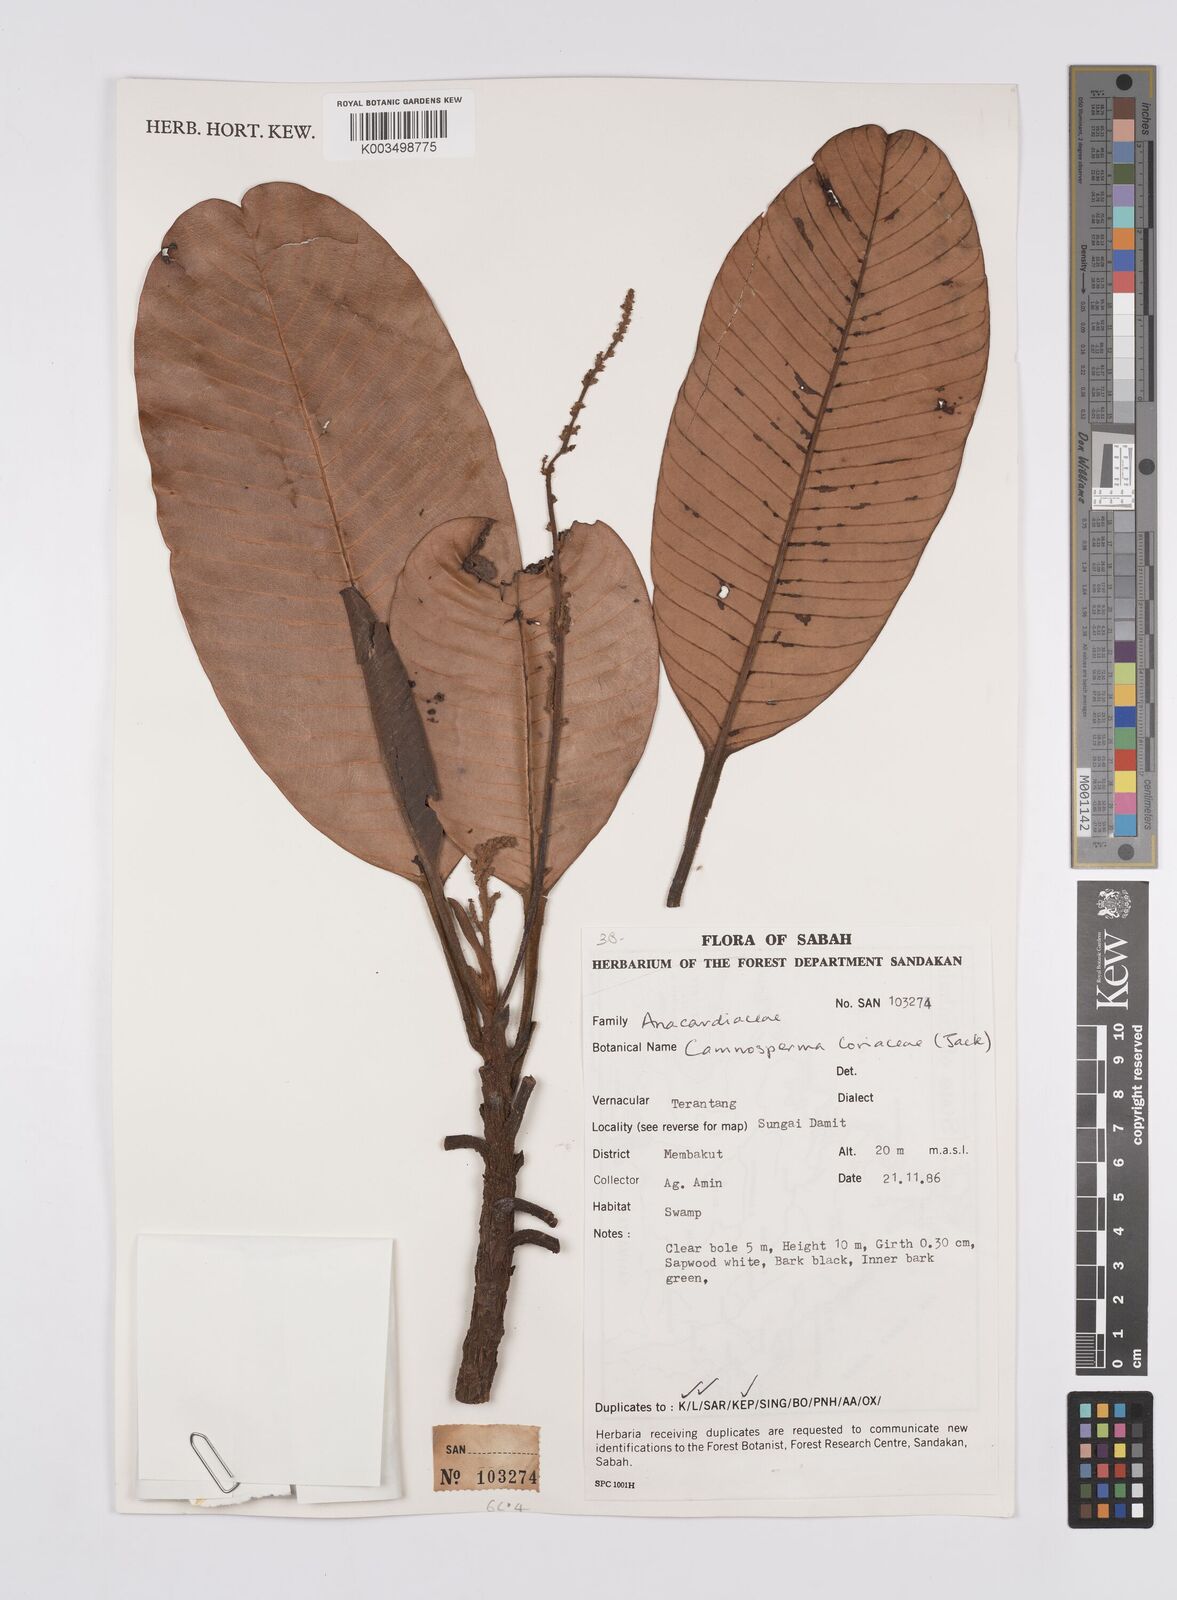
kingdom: Plantae
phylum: Tracheophyta
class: Magnoliopsida
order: Sapindales
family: Anacardiaceae
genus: Campnosperma
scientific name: Campnosperma coriaceum
